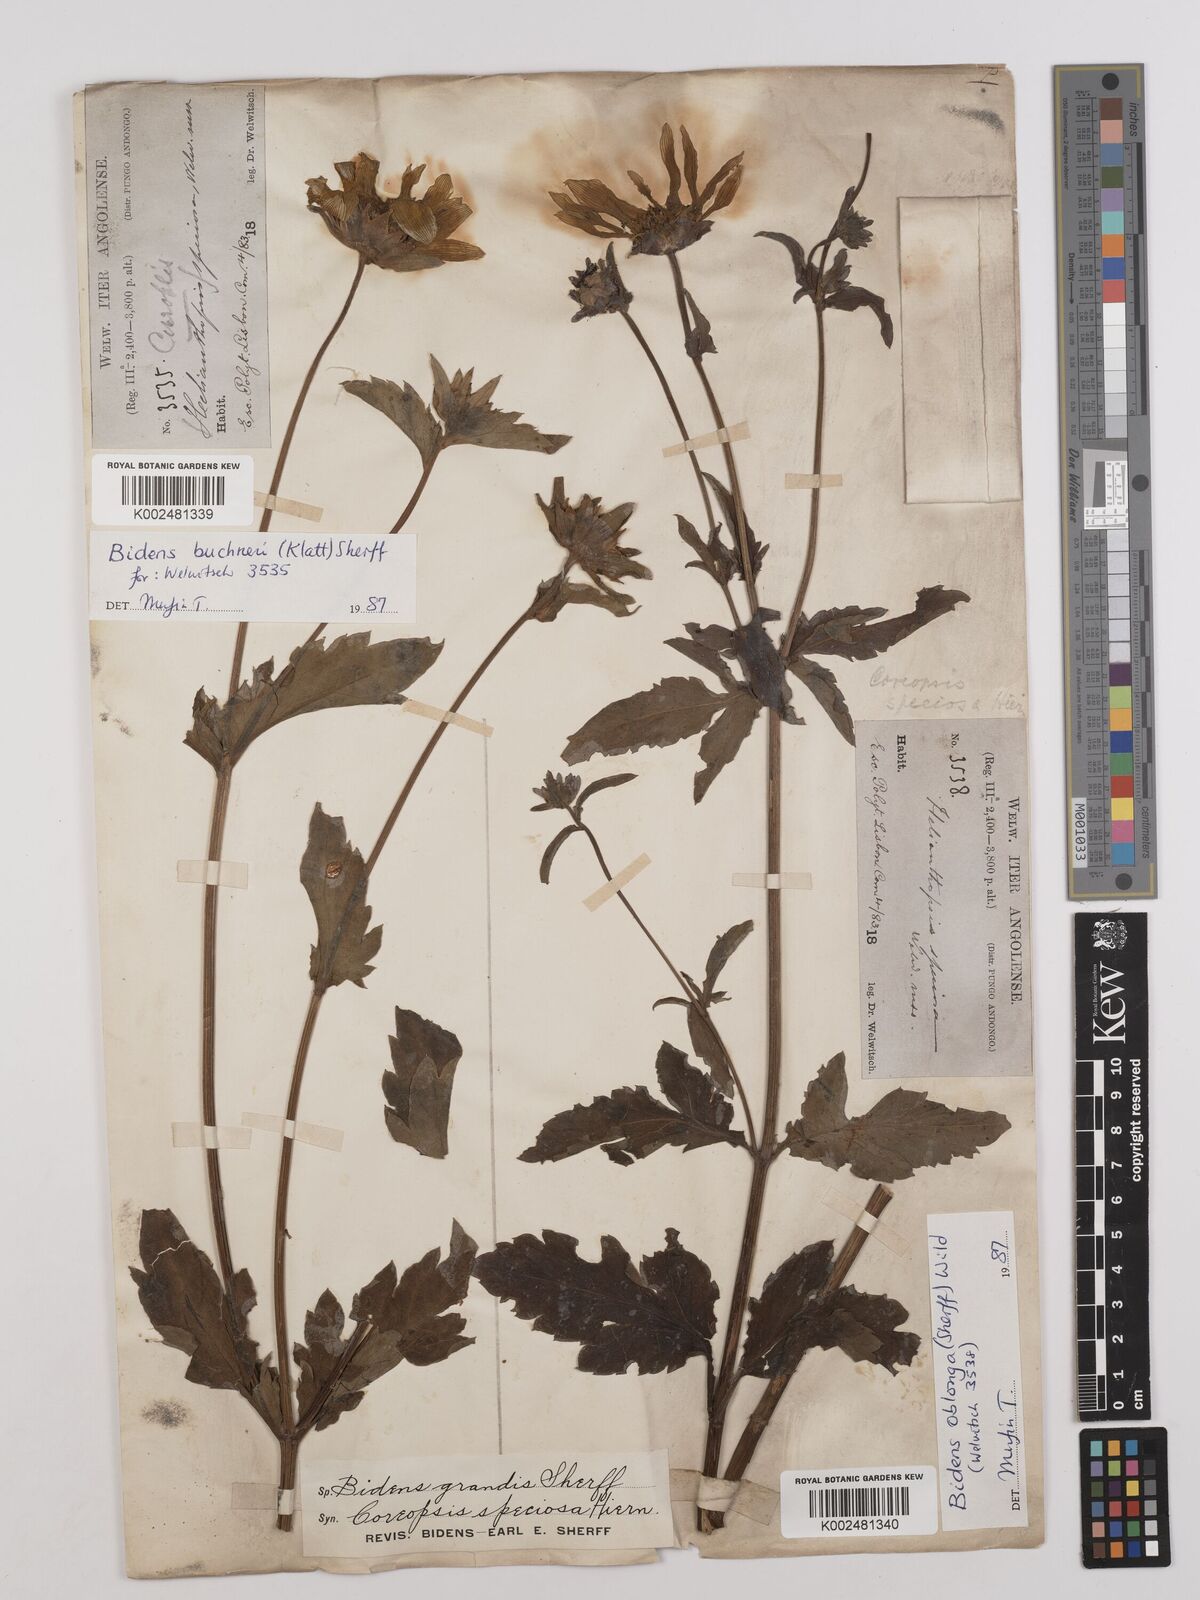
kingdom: Plantae
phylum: Tracheophyta
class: Magnoliopsida
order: Asterales
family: Asteraceae
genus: Bidens
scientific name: Bidens oblonga
